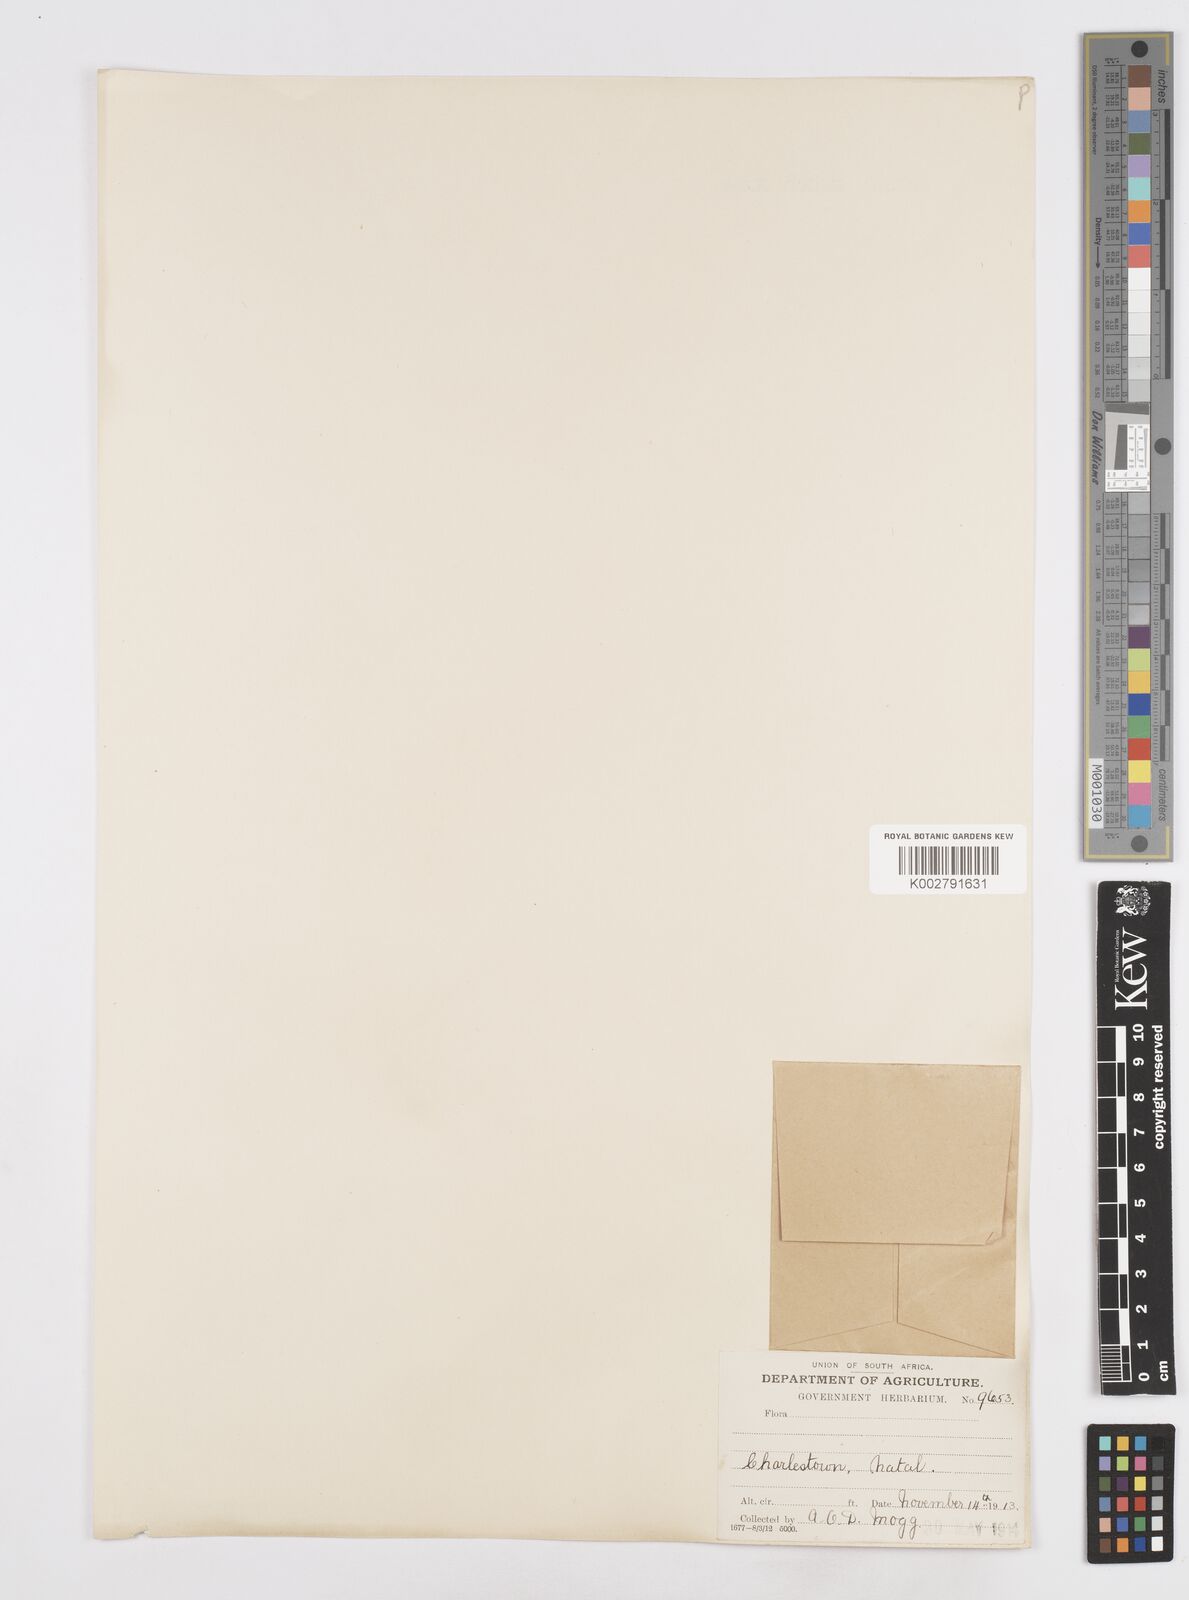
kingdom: Plantae
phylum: Tracheophyta
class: Liliopsida
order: Asparagales
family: Asparagaceae
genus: Scilla
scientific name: Scilla
